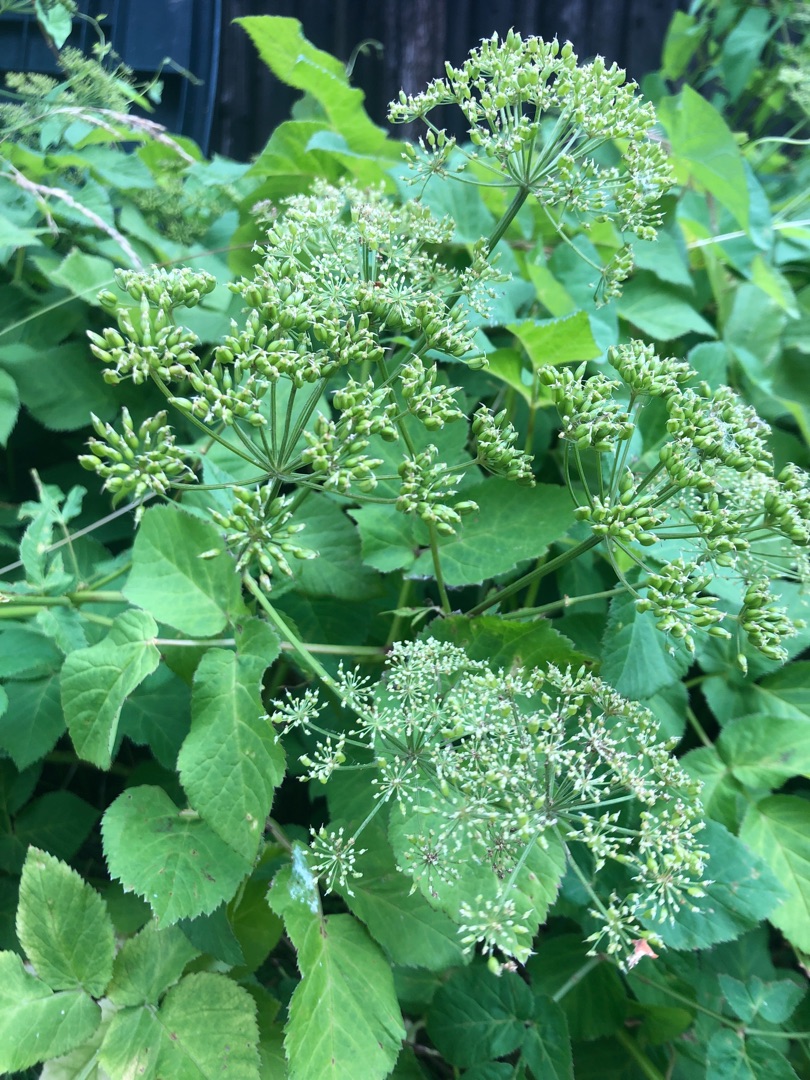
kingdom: Plantae
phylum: Tracheophyta
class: Magnoliopsida
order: Apiales
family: Apiaceae
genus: Aegopodium
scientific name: Aegopodium podagraria
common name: Skvalderkål
